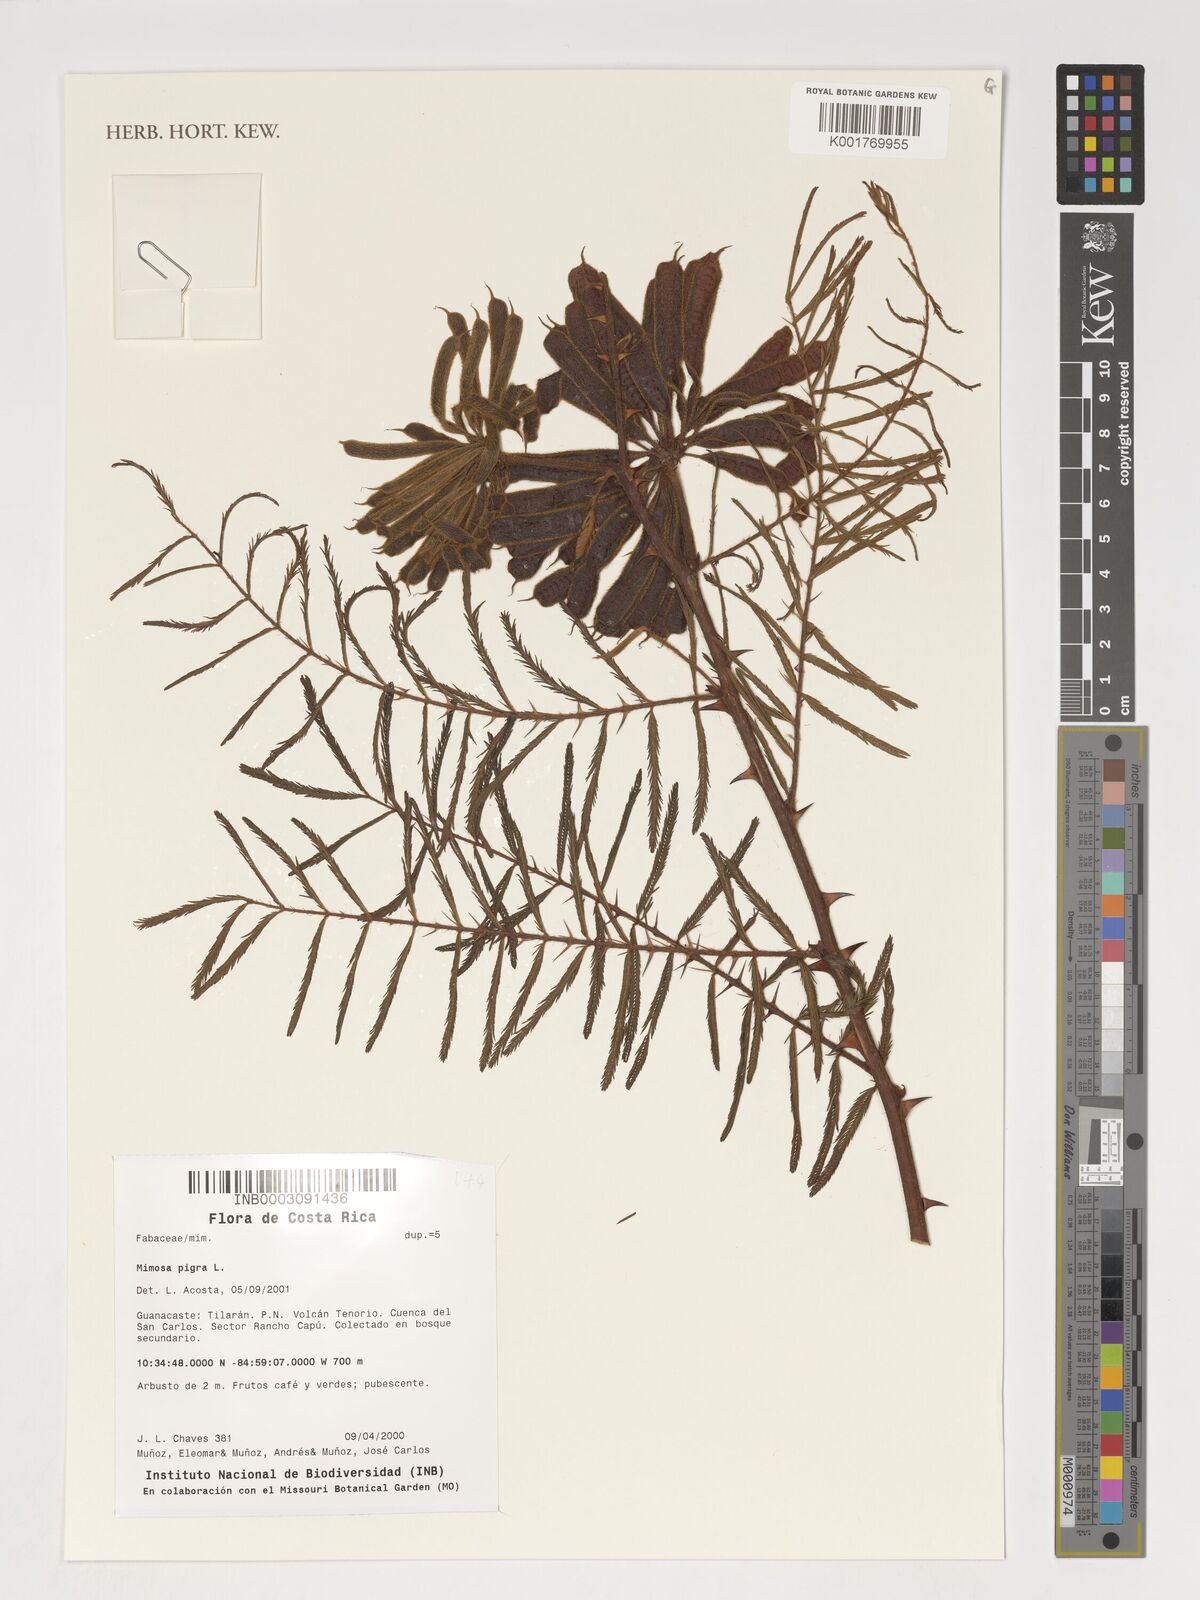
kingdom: Plantae
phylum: Tracheophyta
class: Magnoliopsida
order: Fabales
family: Fabaceae
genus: Mimosa
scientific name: Mimosa pigra
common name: Black mimosa
